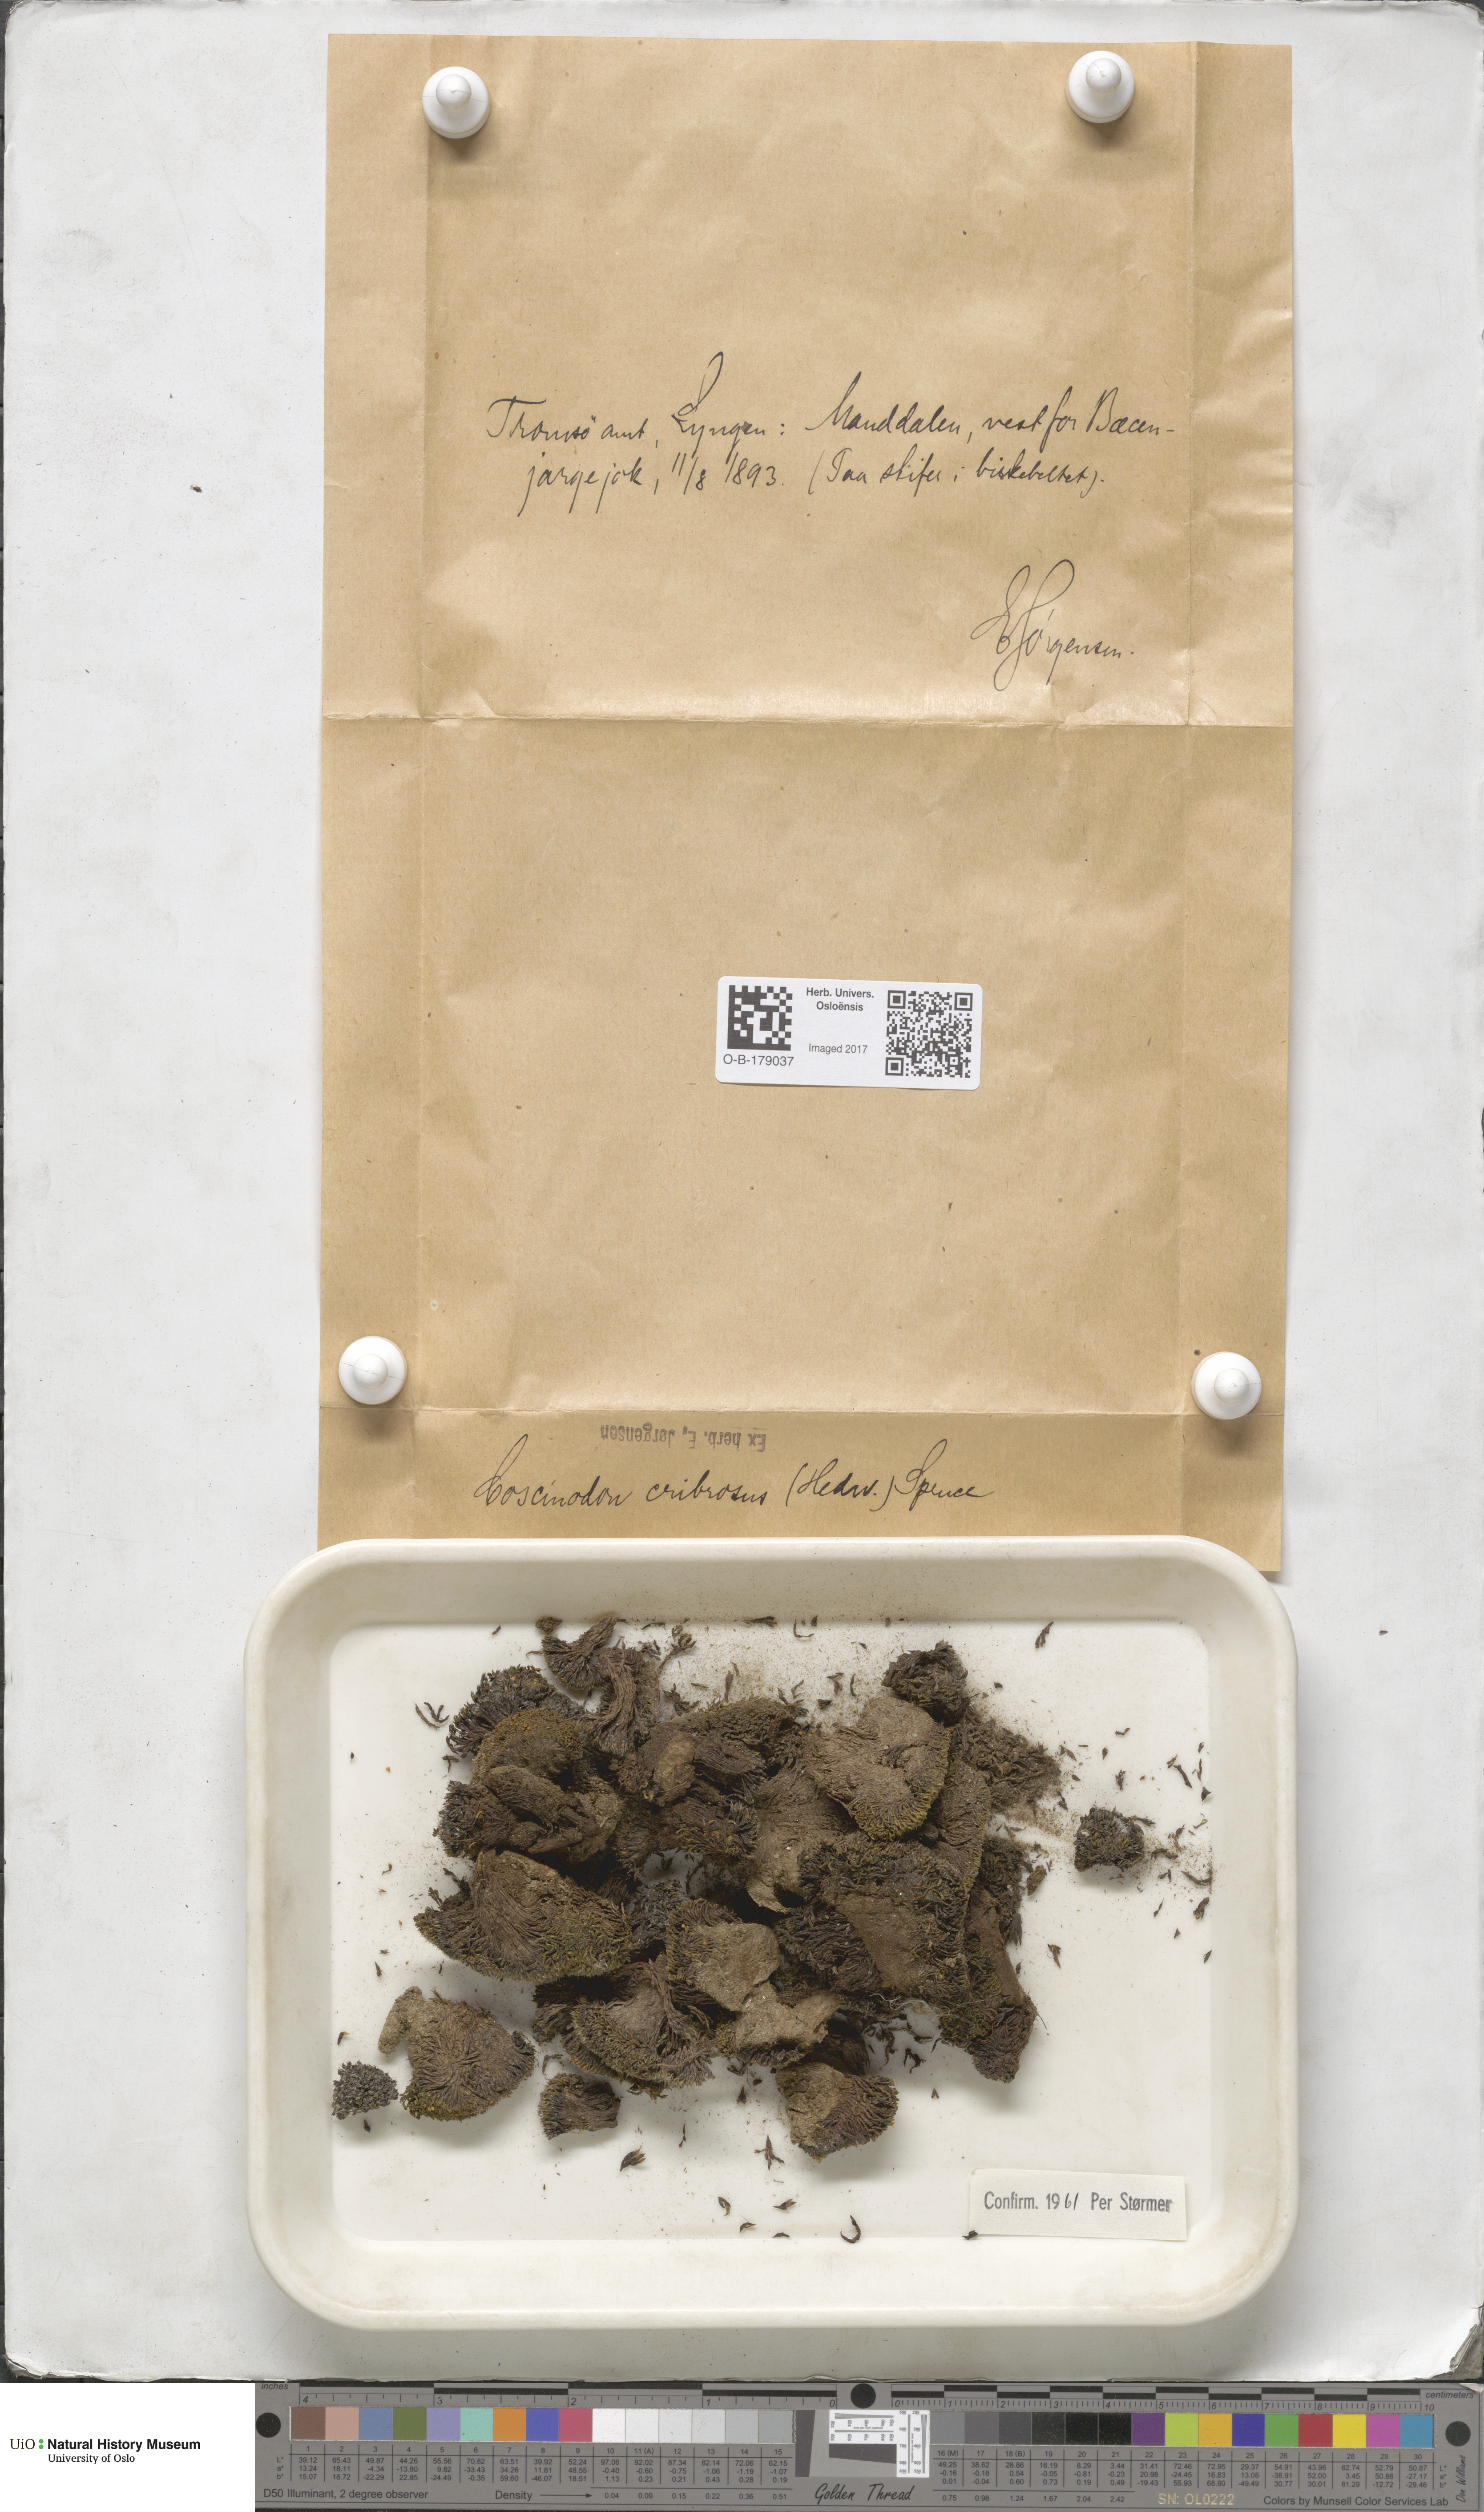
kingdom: Plantae
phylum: Bryophyta
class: Bryopsida
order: Bartramiales
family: Bartramiaceae
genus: Conostomum
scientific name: Conostomum tetragonum
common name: Helmet moss
